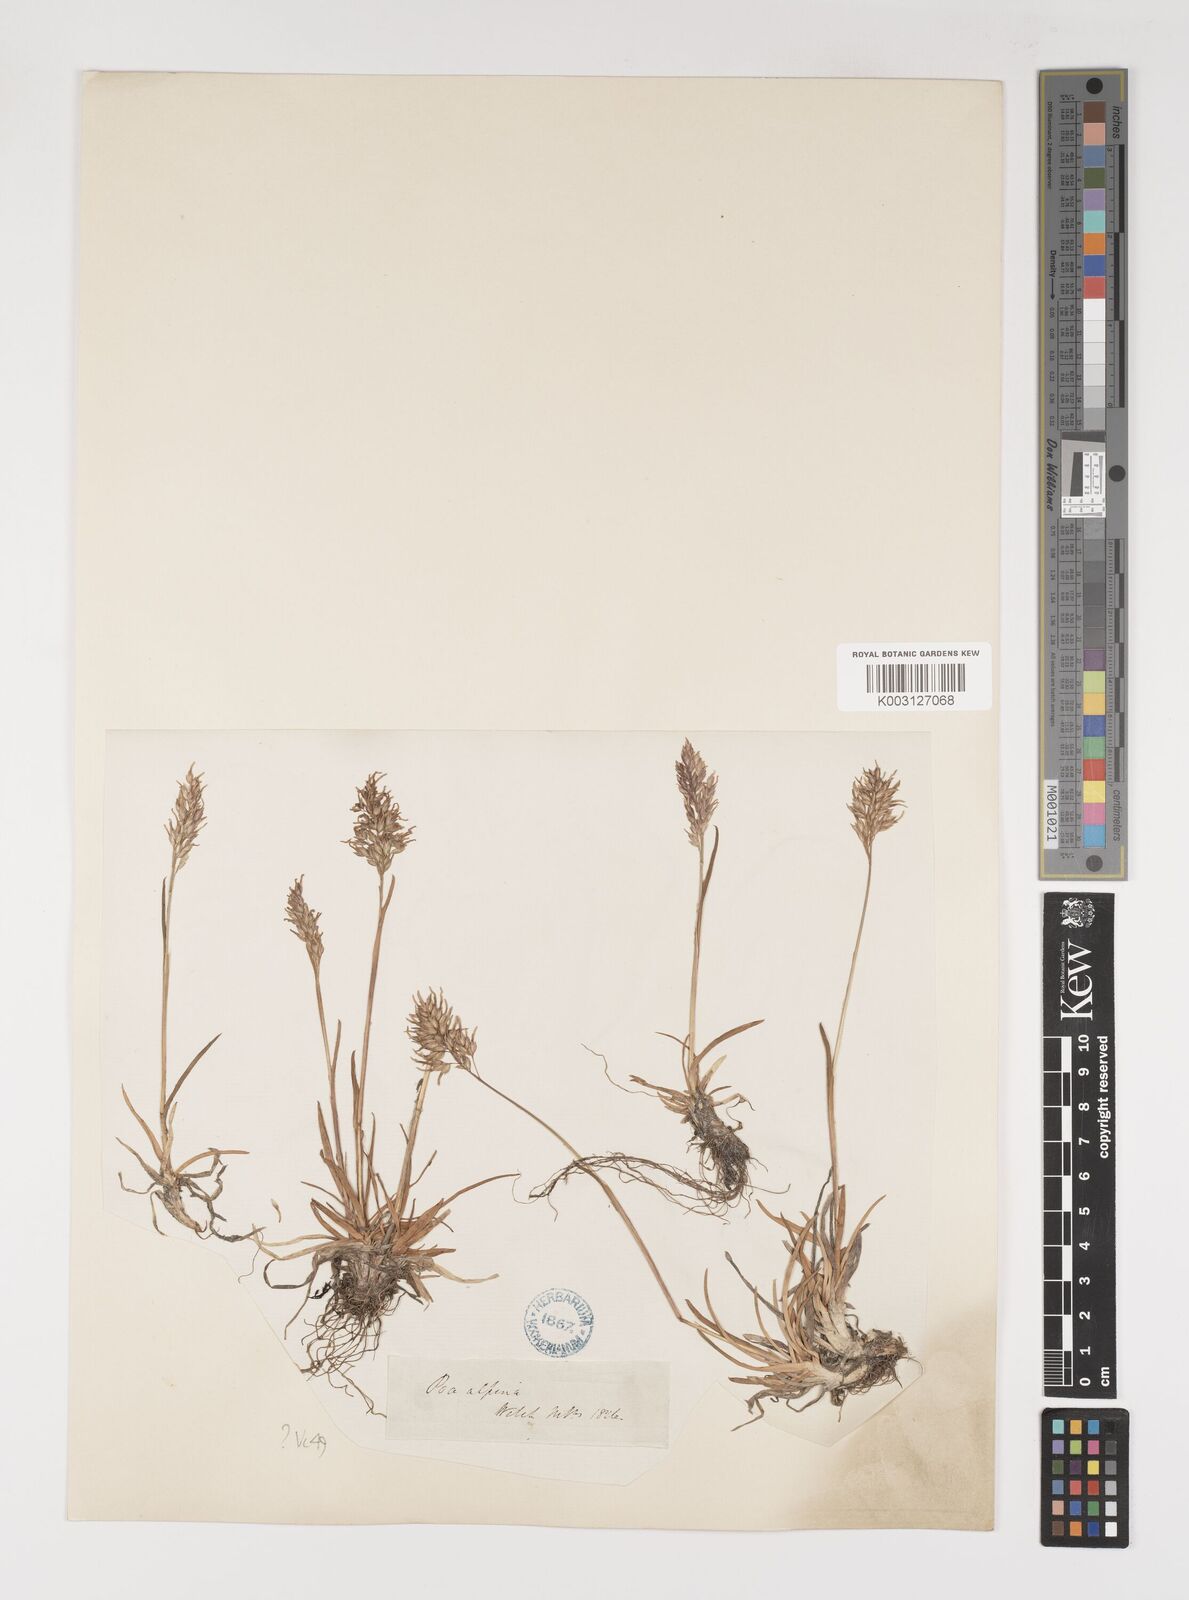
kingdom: Plantae
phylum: Tracheophyta
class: Liliopsida
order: Poales
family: Poaceae
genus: Poa
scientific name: Poa alpina
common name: Alpine bluegrass
